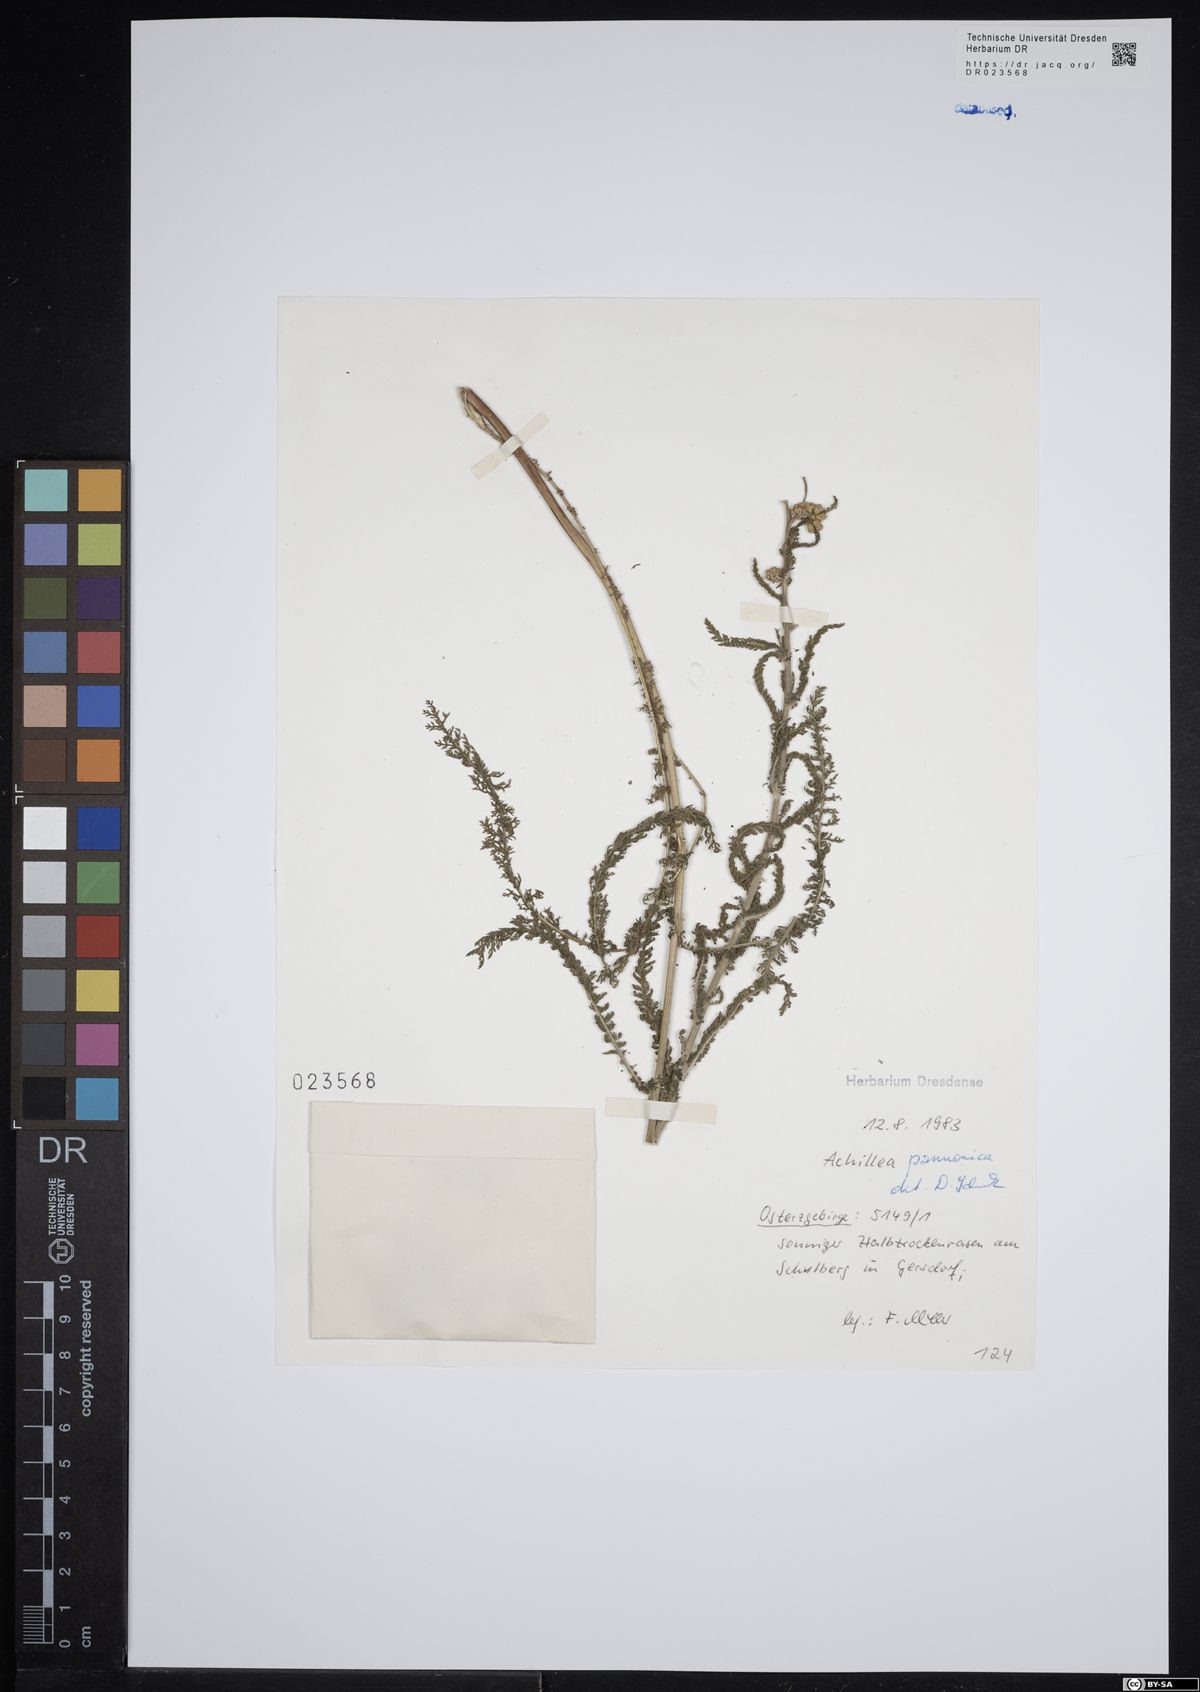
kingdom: Plantae
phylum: Tracheophyta
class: Magnoliopsida
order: Asterales
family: Asteraceae
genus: Achillea
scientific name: Achillea pannonica
